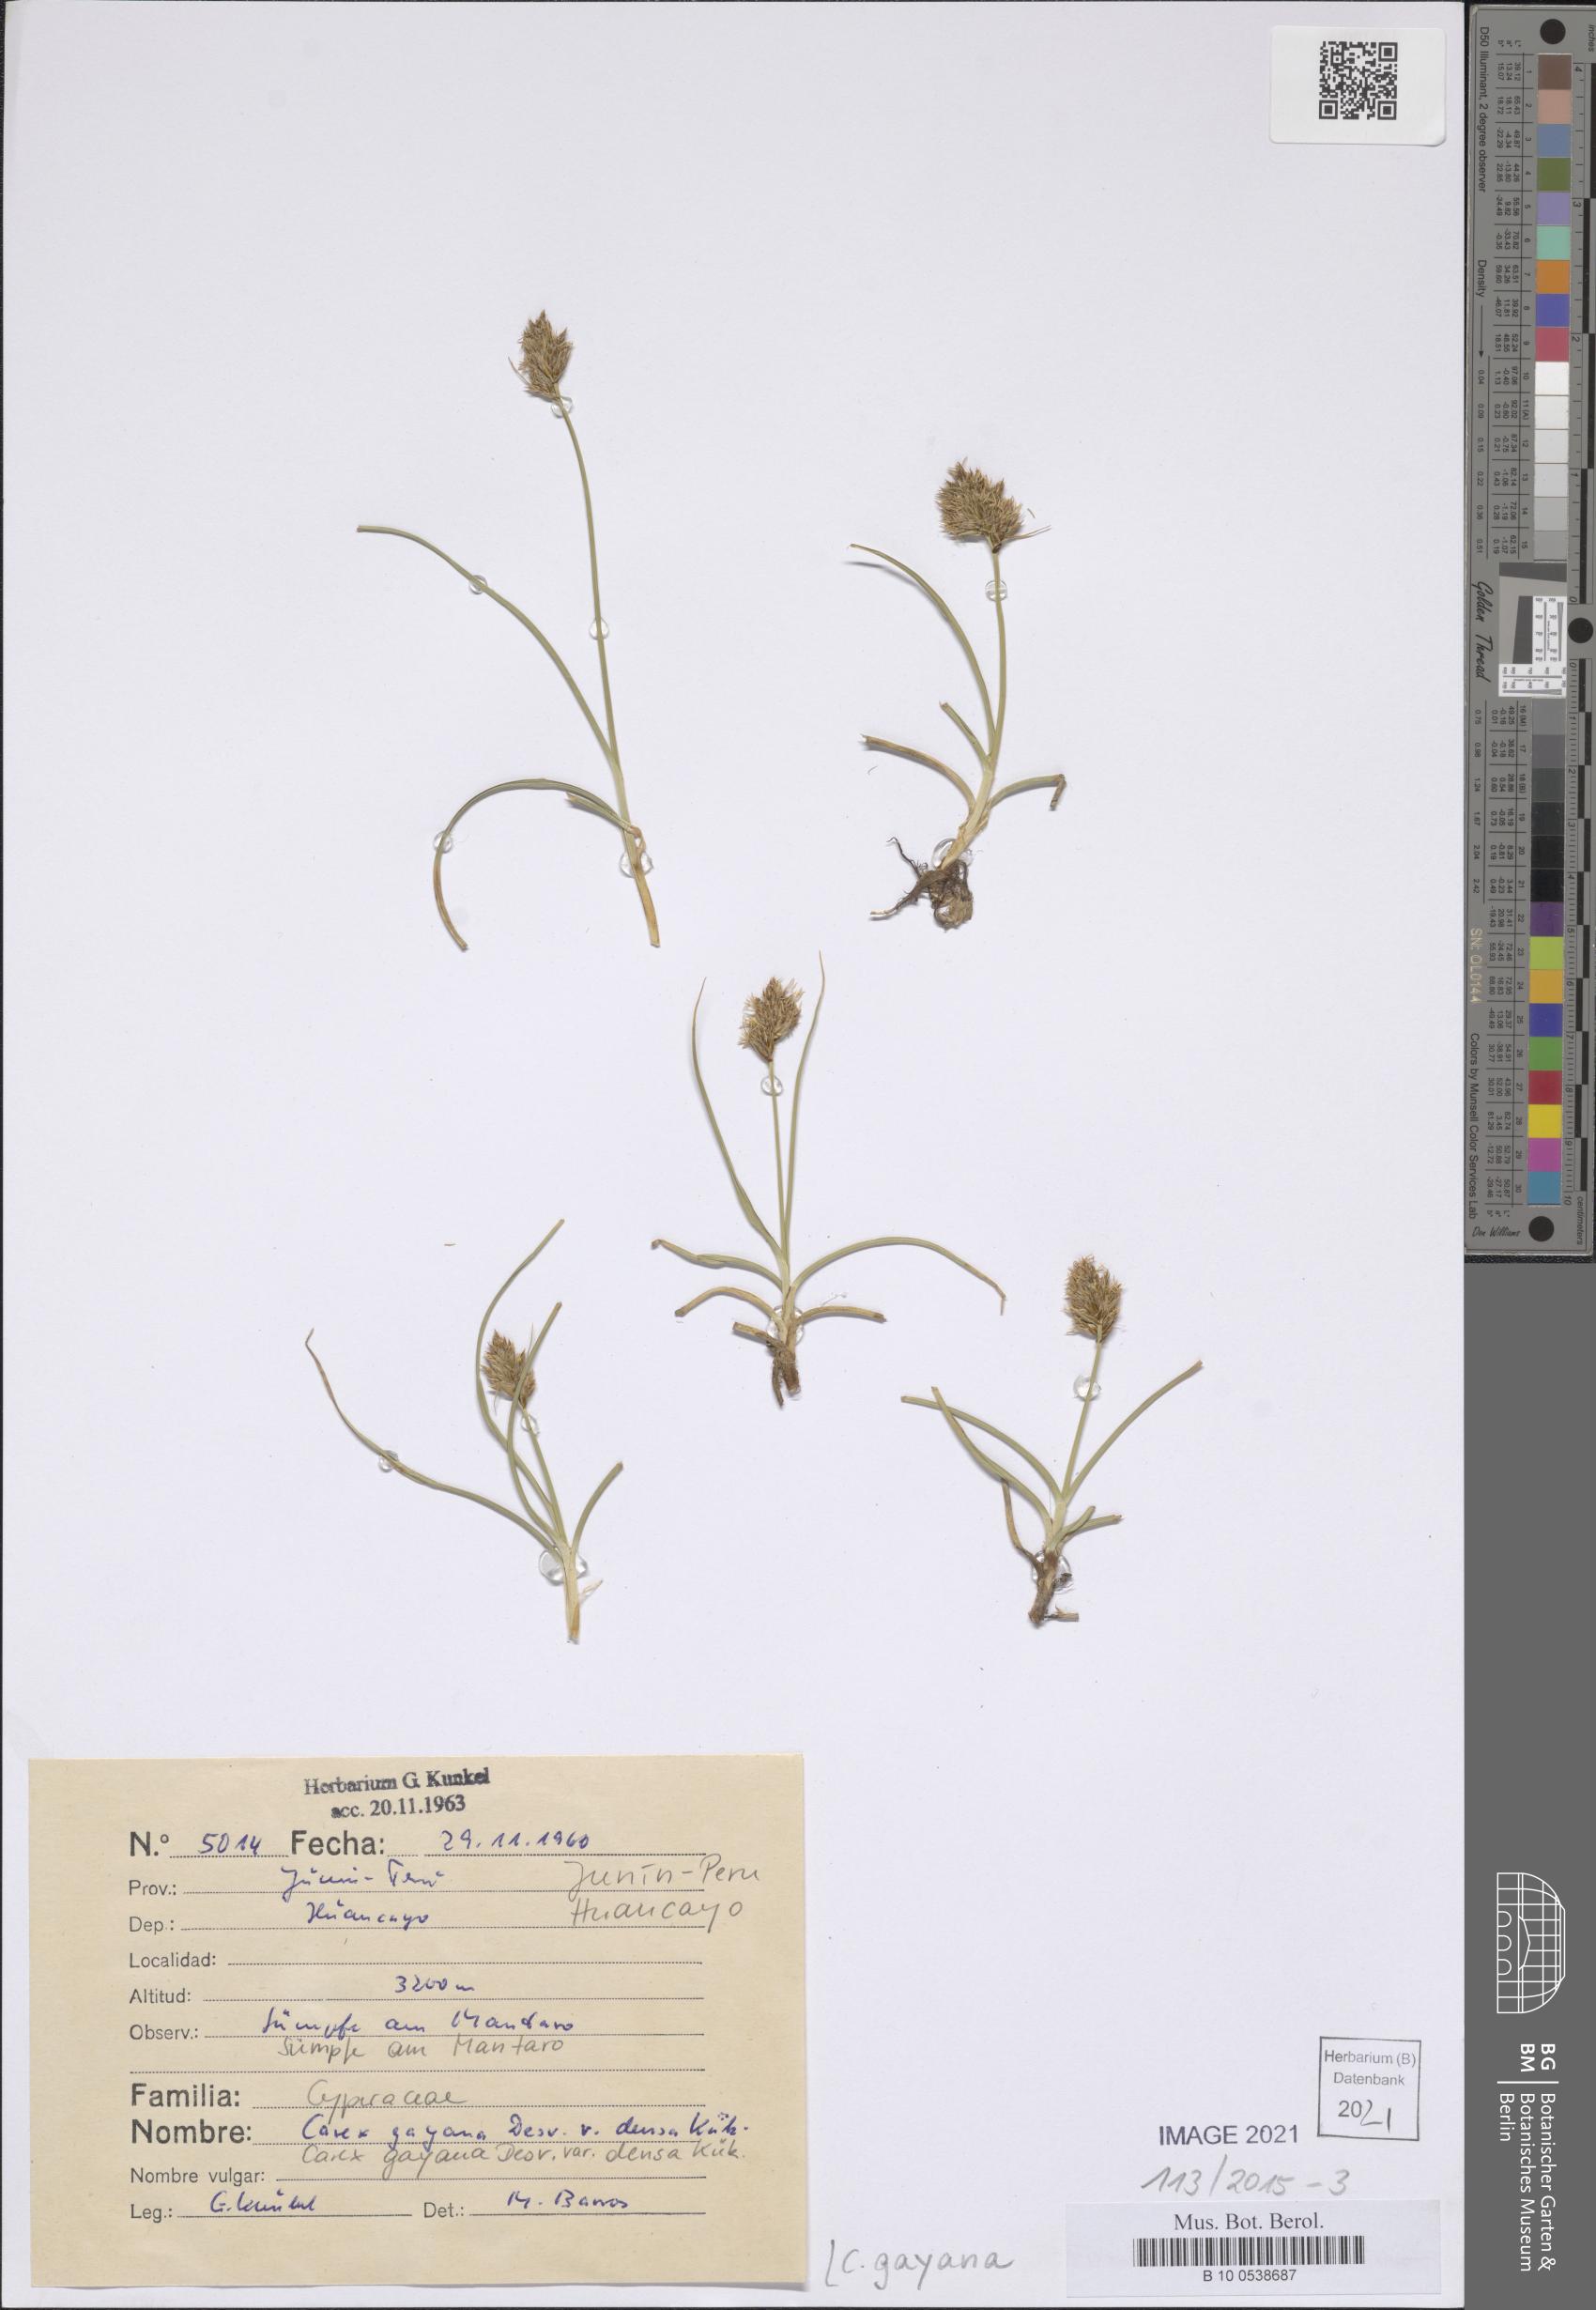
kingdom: Plantae
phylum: Tracheophyta
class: Liliopsida
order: Poales
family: Cyperaceae
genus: Carex
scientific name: Carex gayana
